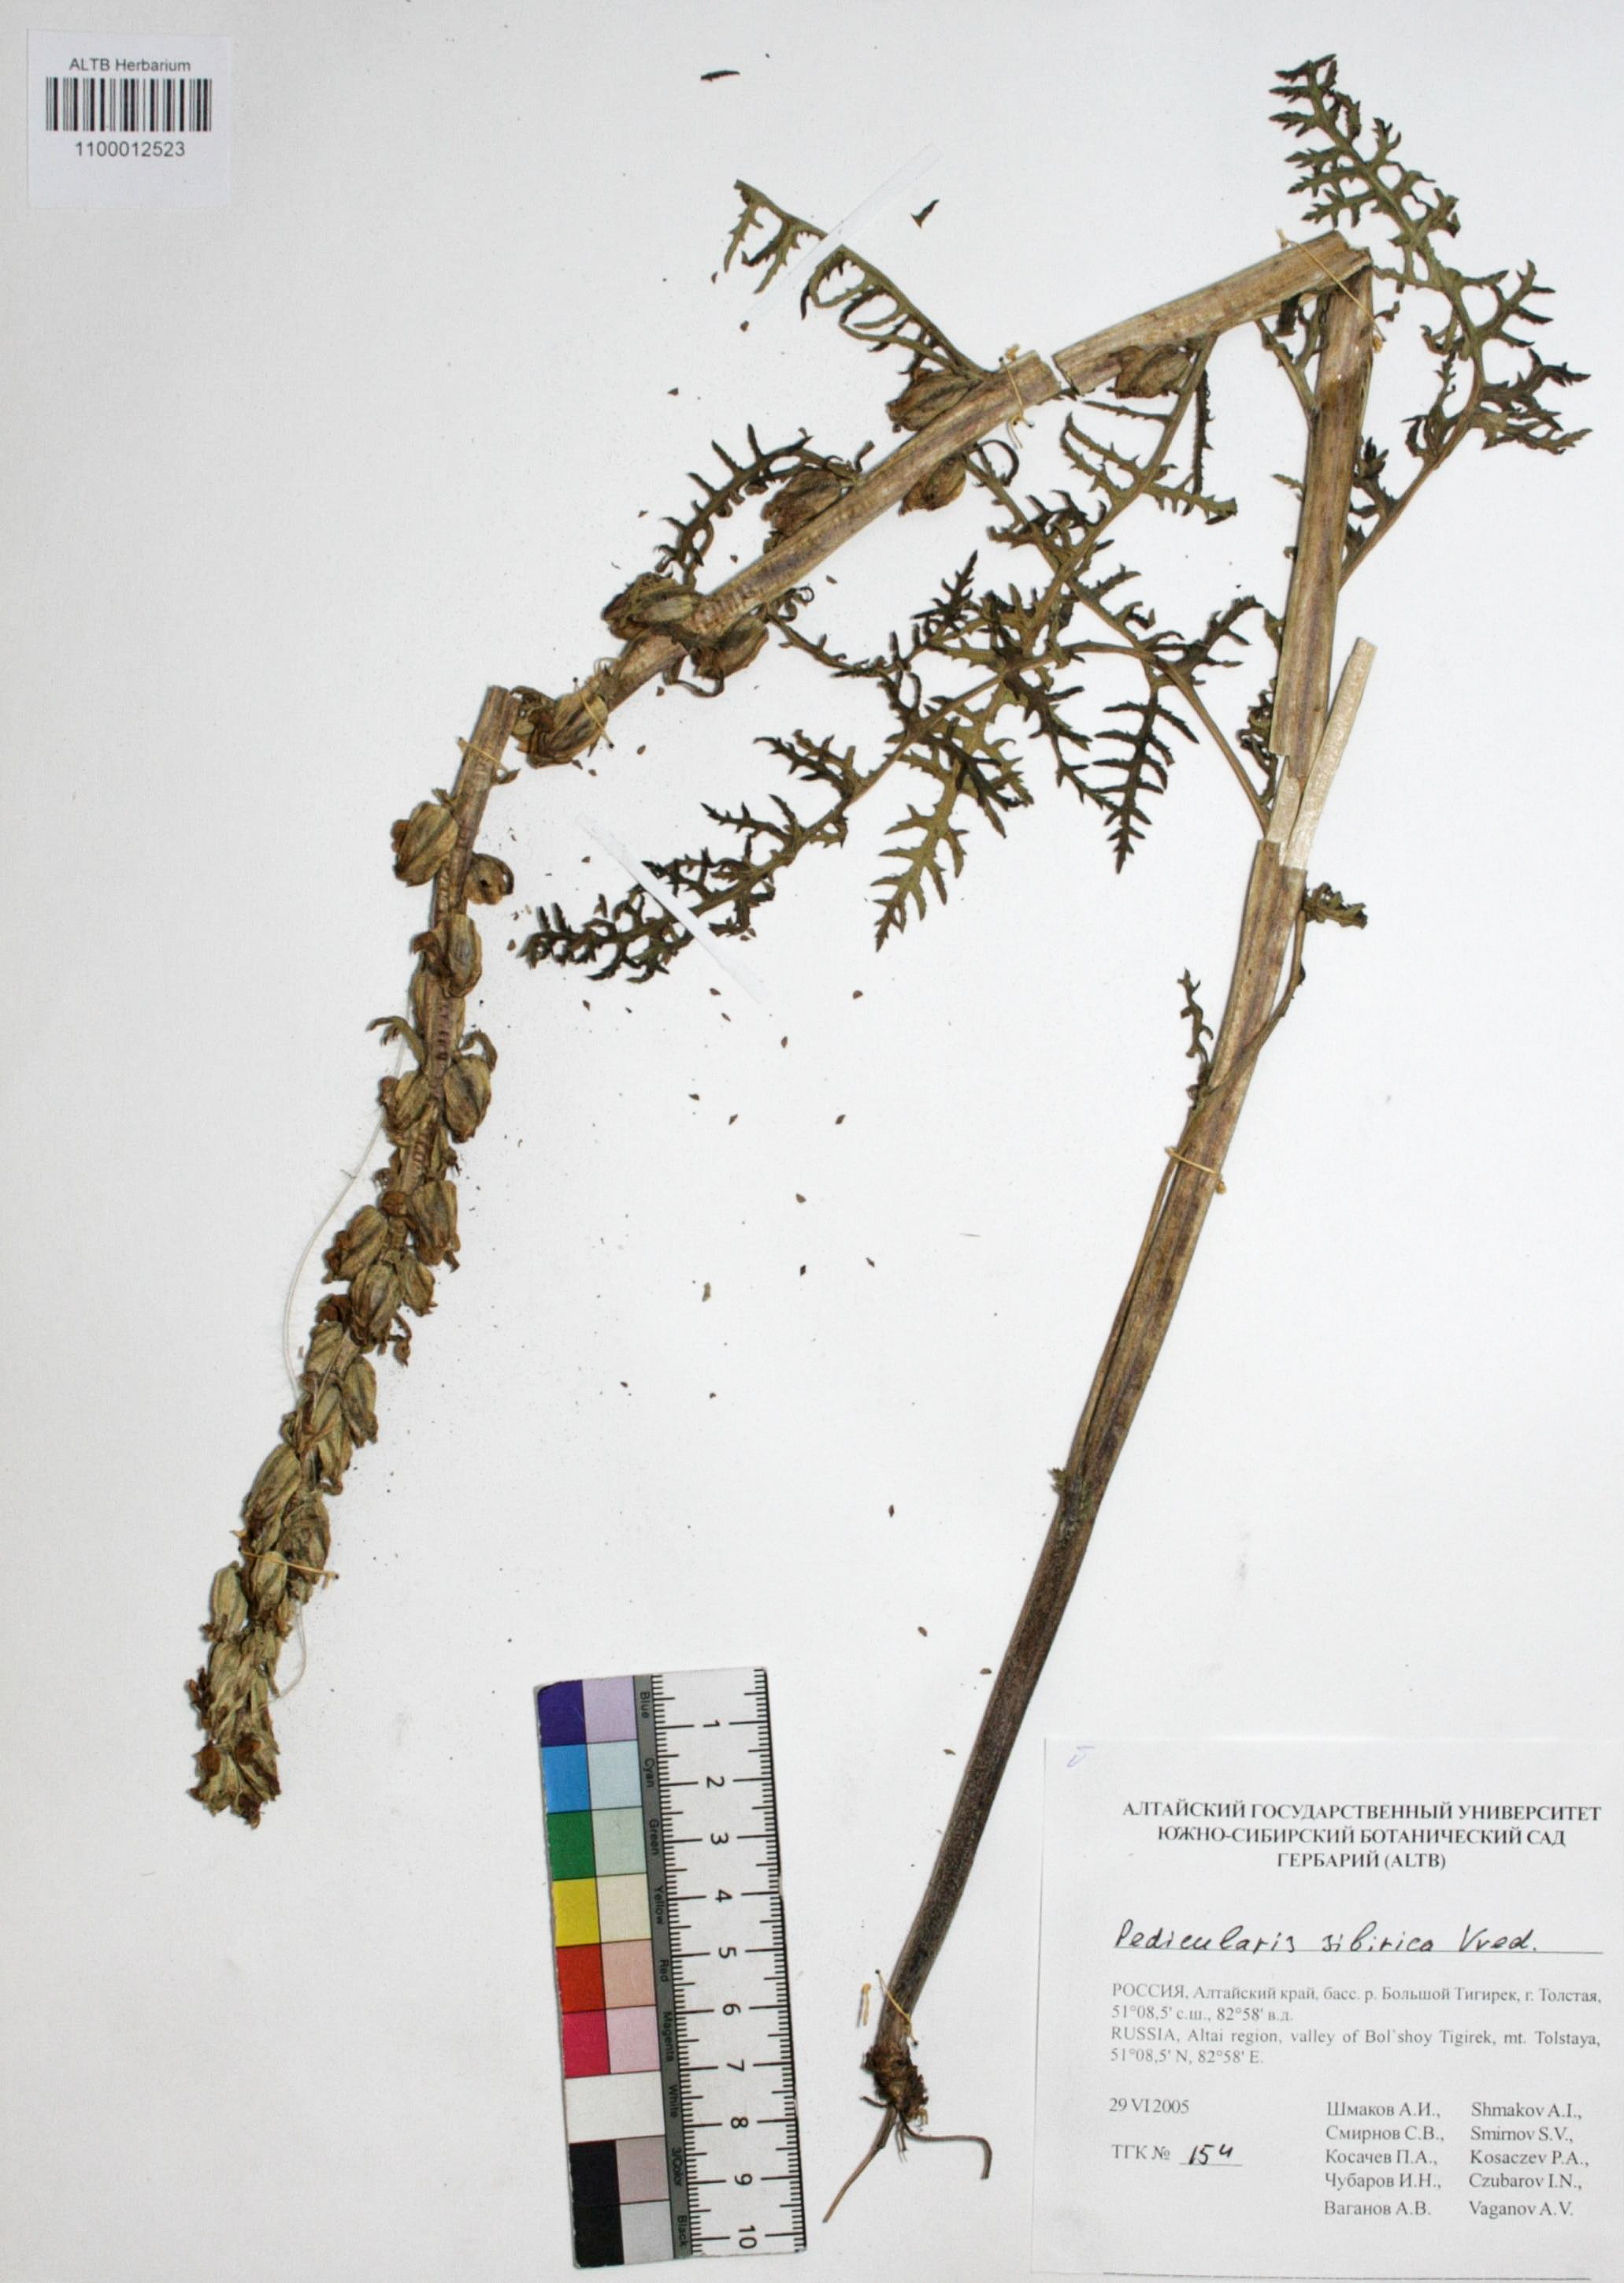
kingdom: Plantae
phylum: Tracheophyta
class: Magnoliopsida
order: Lamiales
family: Orobanchaceae
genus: Pedicularis
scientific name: Pedicularis sibirica
